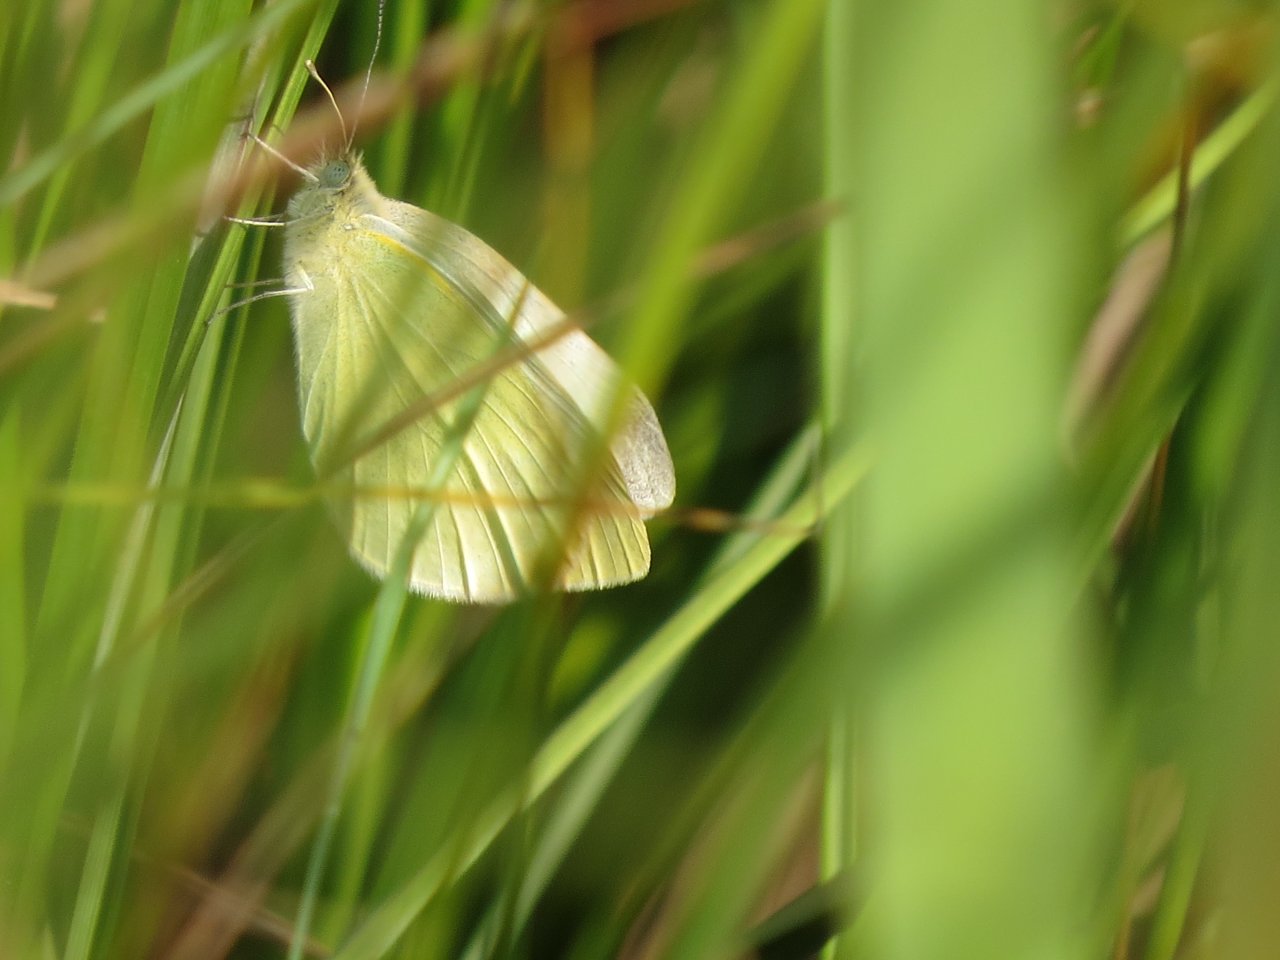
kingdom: Animalia
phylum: Arthropoda
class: Insecta
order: Lepidoptera
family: Pieridae
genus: Pieris
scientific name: Pieris rapae
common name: Cabbage White
